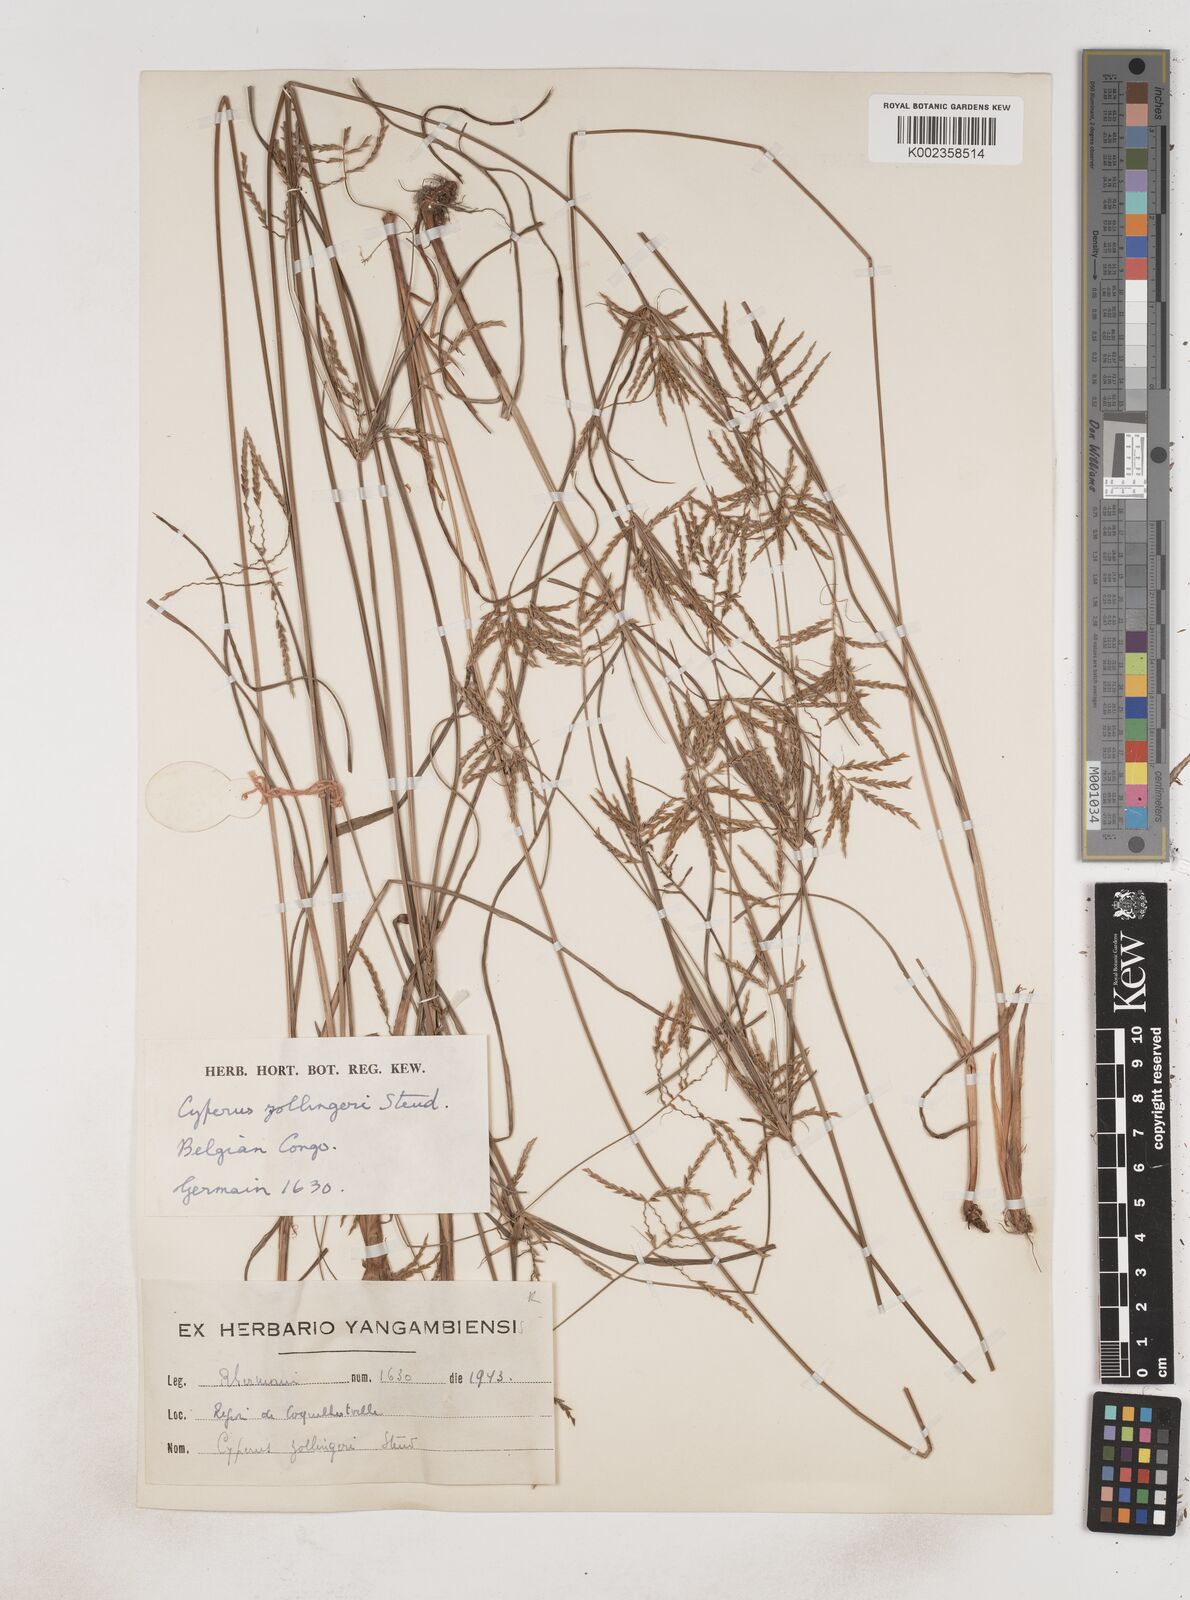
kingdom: Plantae
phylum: Tracheophyta
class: Liliopsida
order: Poales
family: Cyperaceae
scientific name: Cyperaceae
